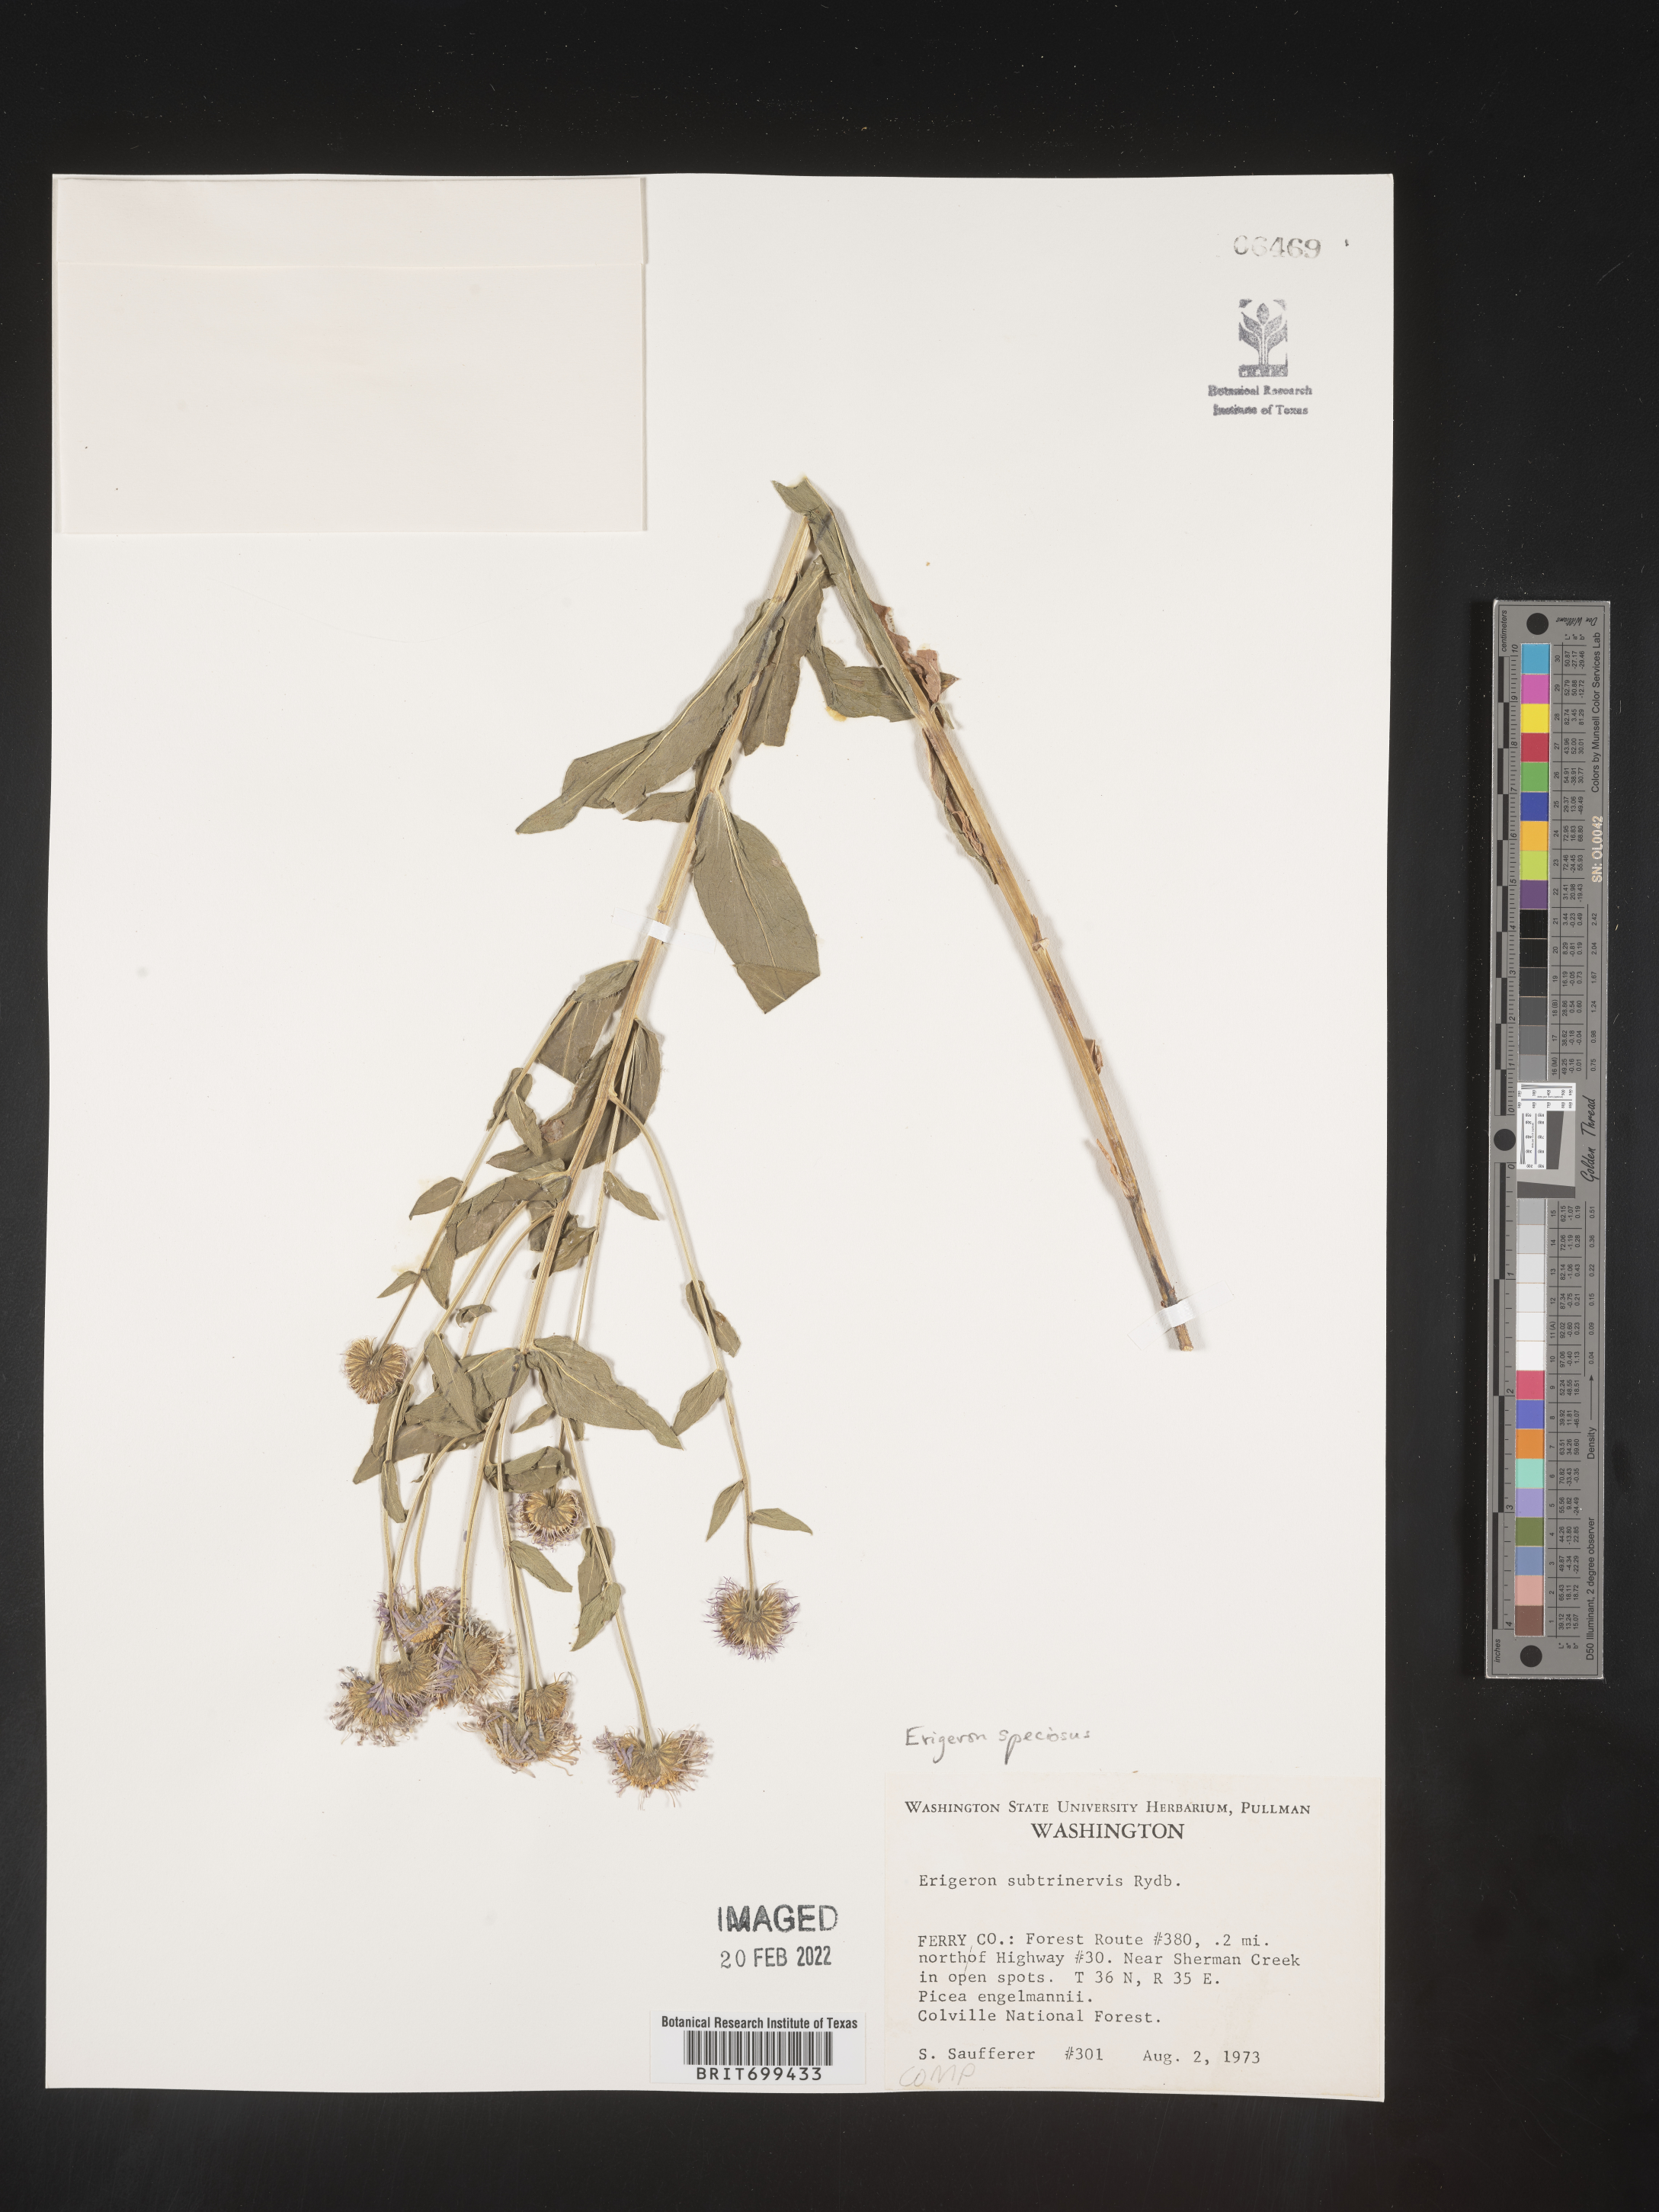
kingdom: Plantae
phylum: Tracheophyta
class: Magnoliopsida
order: Asterales
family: Asteraceae
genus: Erigeron
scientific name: Erigeron speciosus
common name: Aspen fleabane
